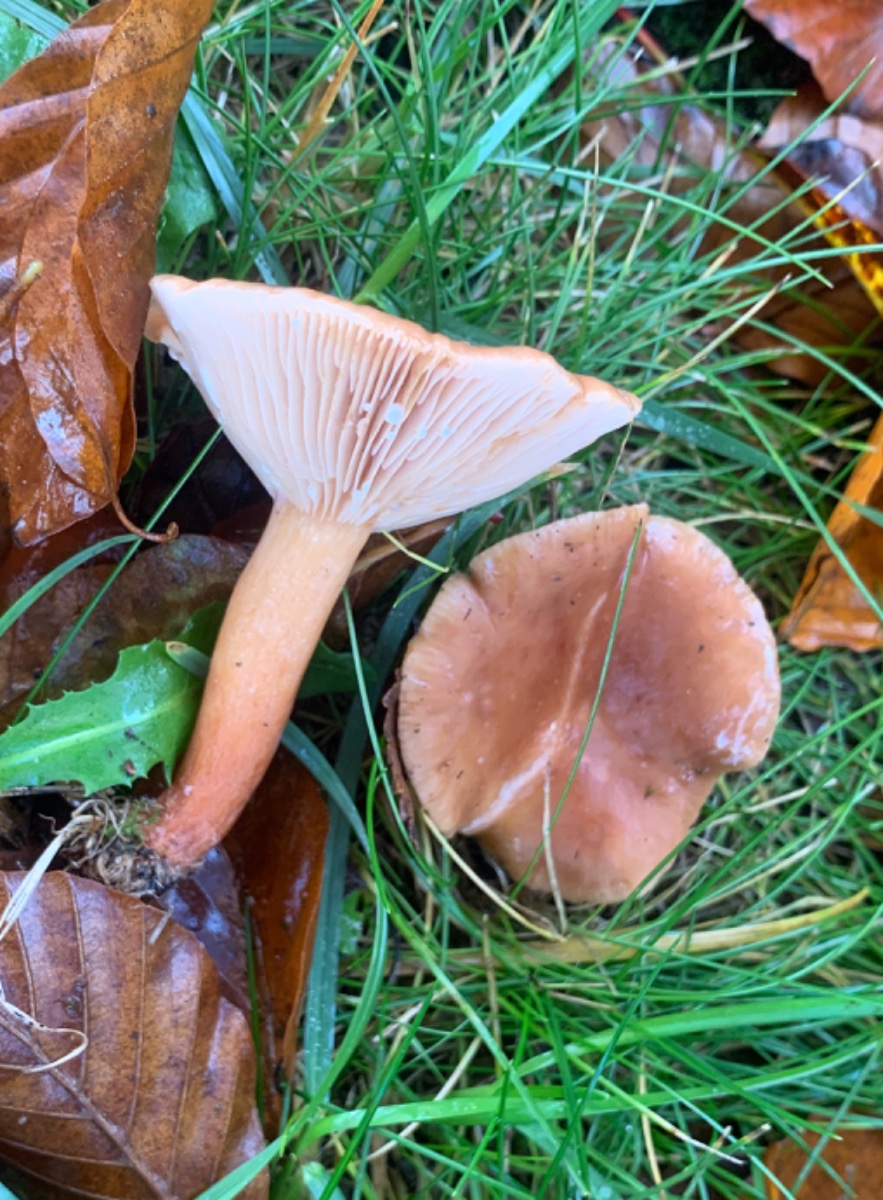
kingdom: Fungi
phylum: Basidiomycota
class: Agaricomycetes
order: Russulales
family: Russulaceae
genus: Lactarius
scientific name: Lactarius subdulcis
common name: sødlig mælkehat
